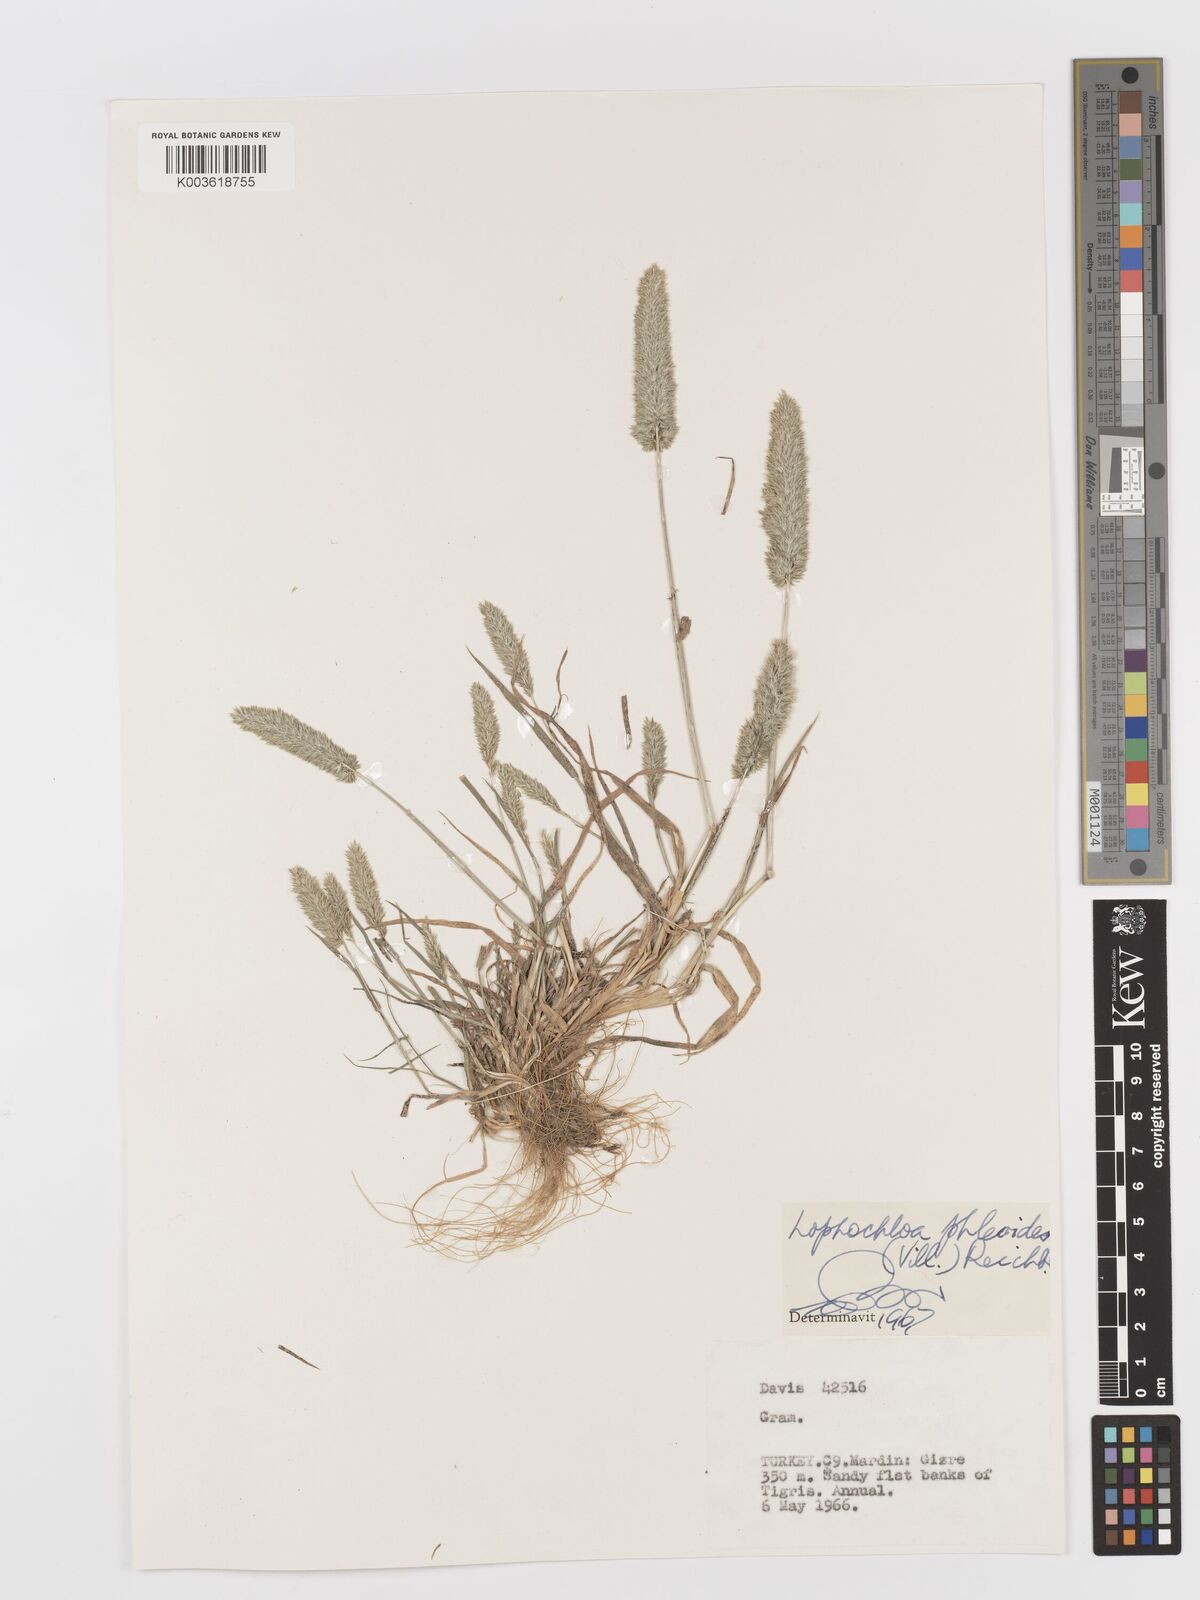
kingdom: Plantae
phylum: Tracheophyta
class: Liliopsida
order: Poales
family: Poaceae
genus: Rostraria
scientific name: Rostraria cristata
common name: Mediterranean hair-grass
